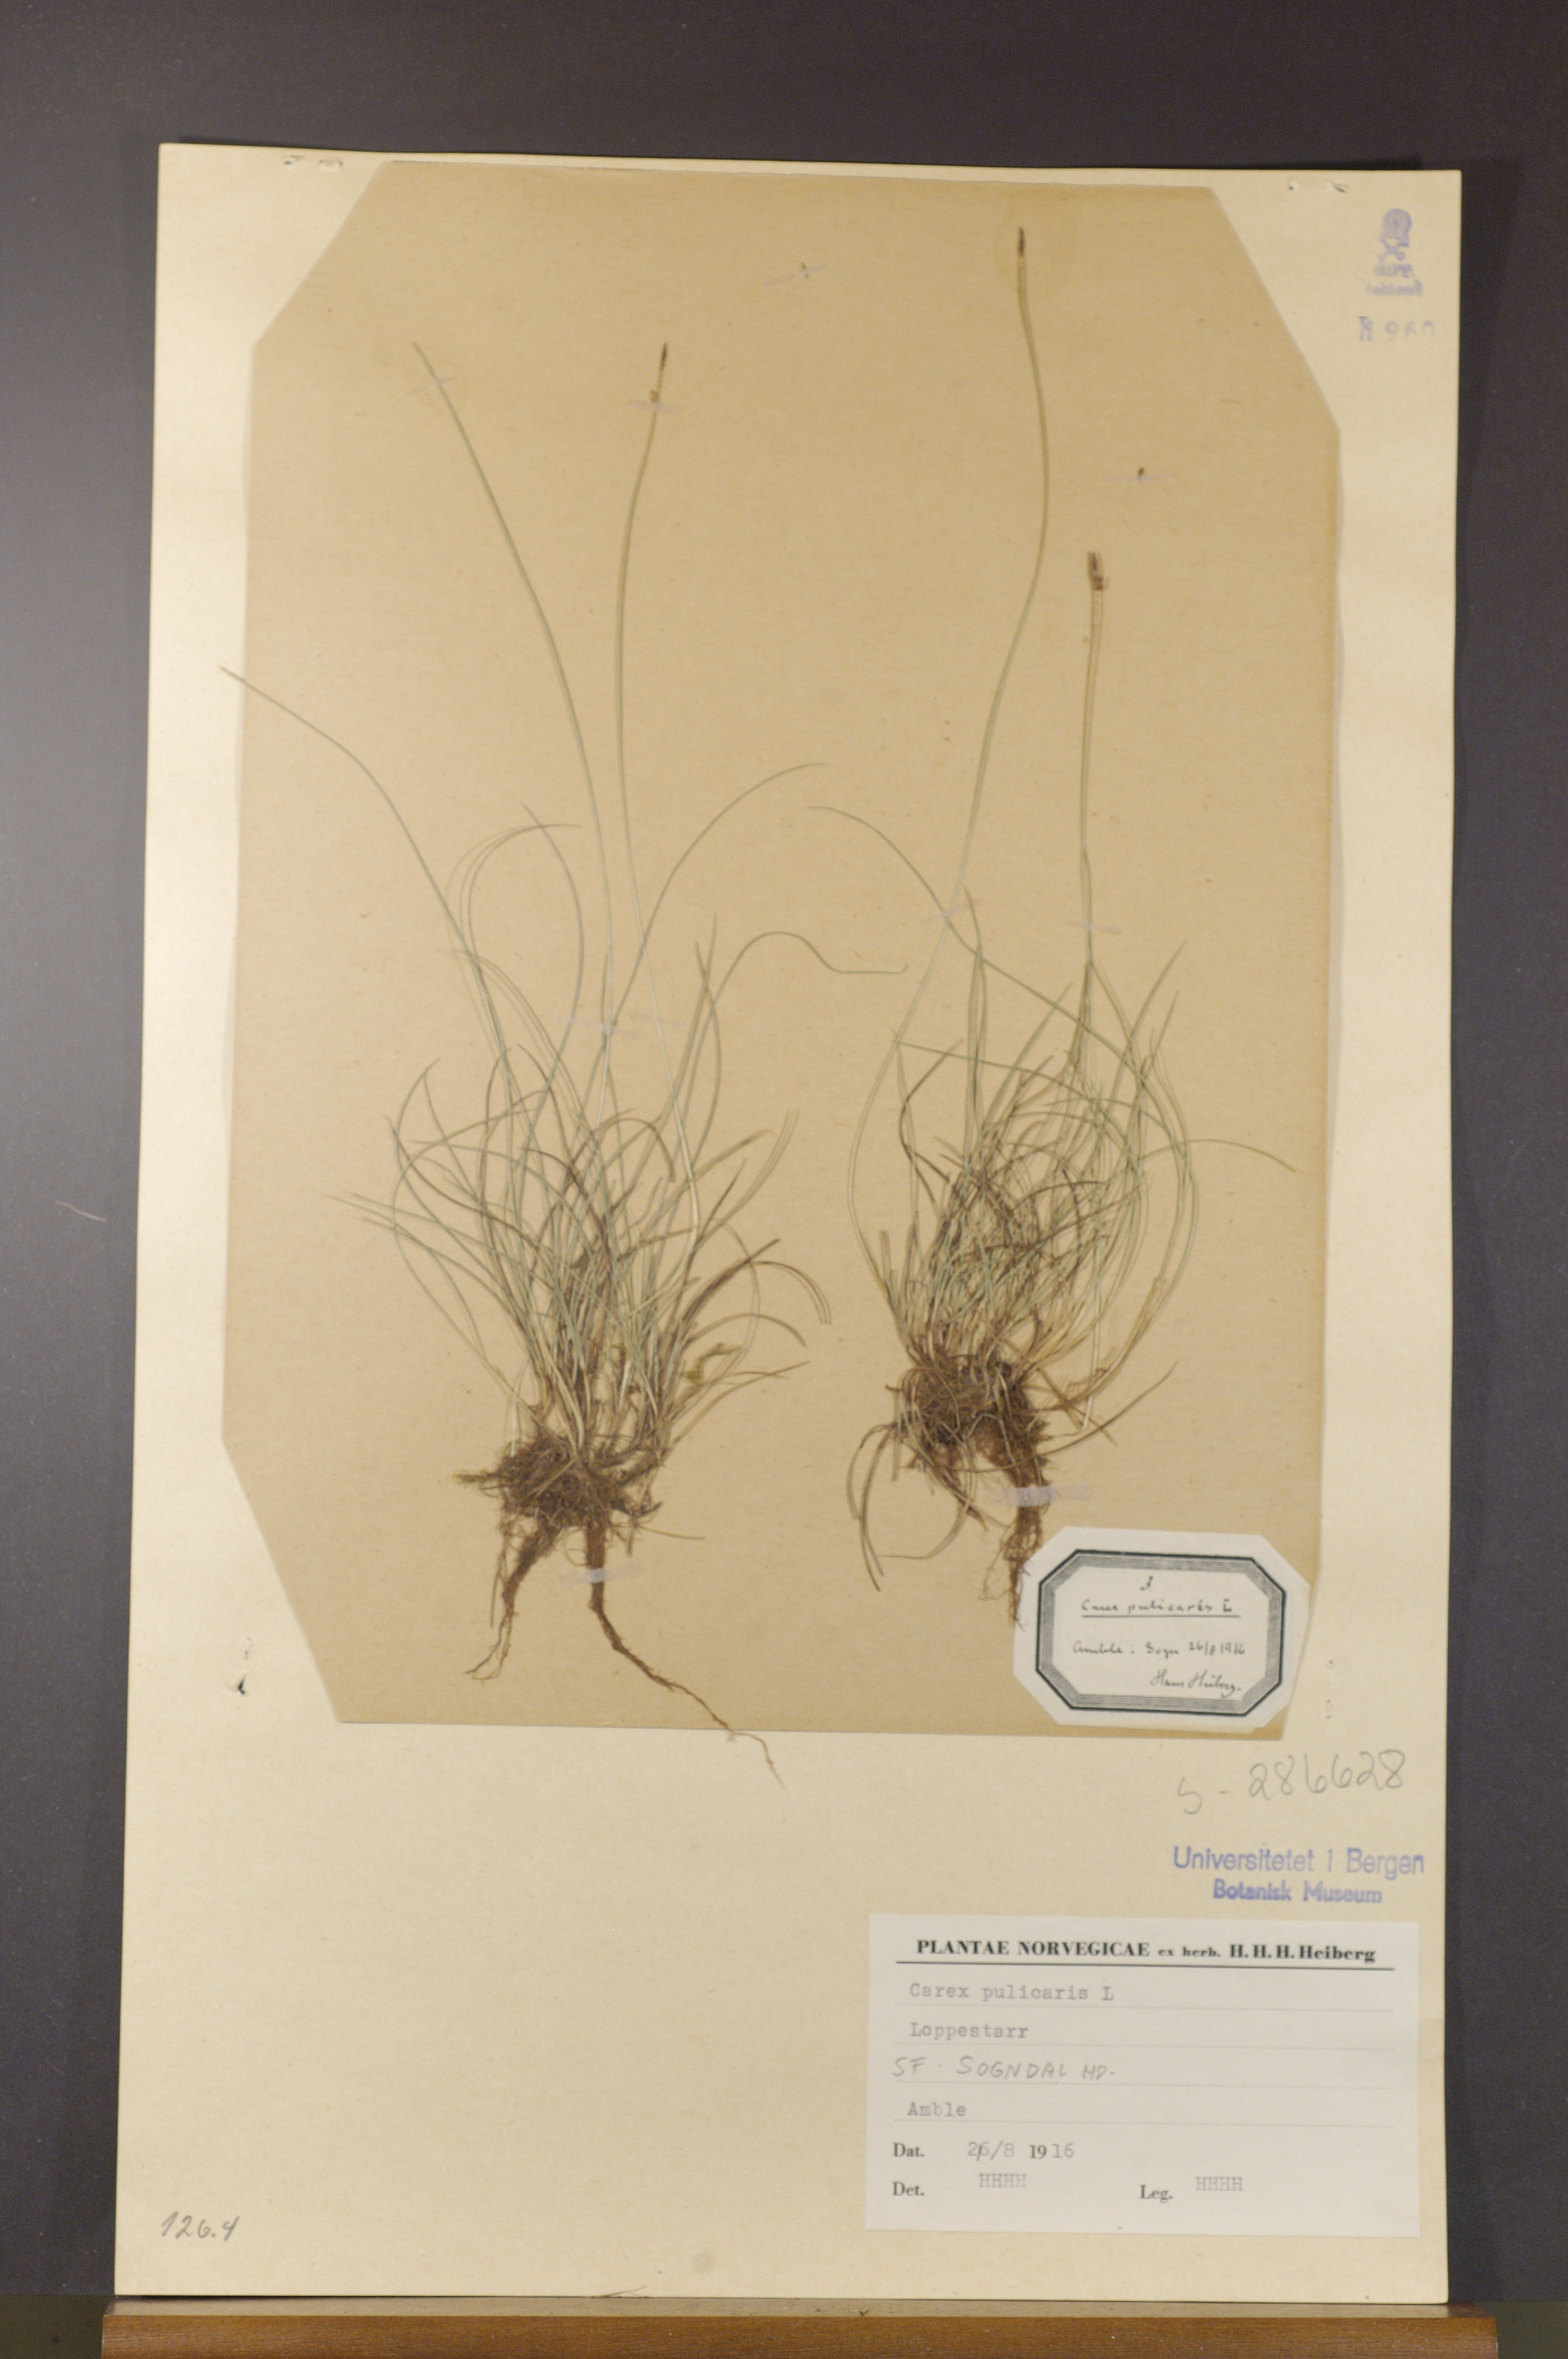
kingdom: Plantae
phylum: Tracheophyta
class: Liliopsida
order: Poales
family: Cyperaceae
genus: Carex
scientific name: Carex pulicaris
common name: Flea sedge
